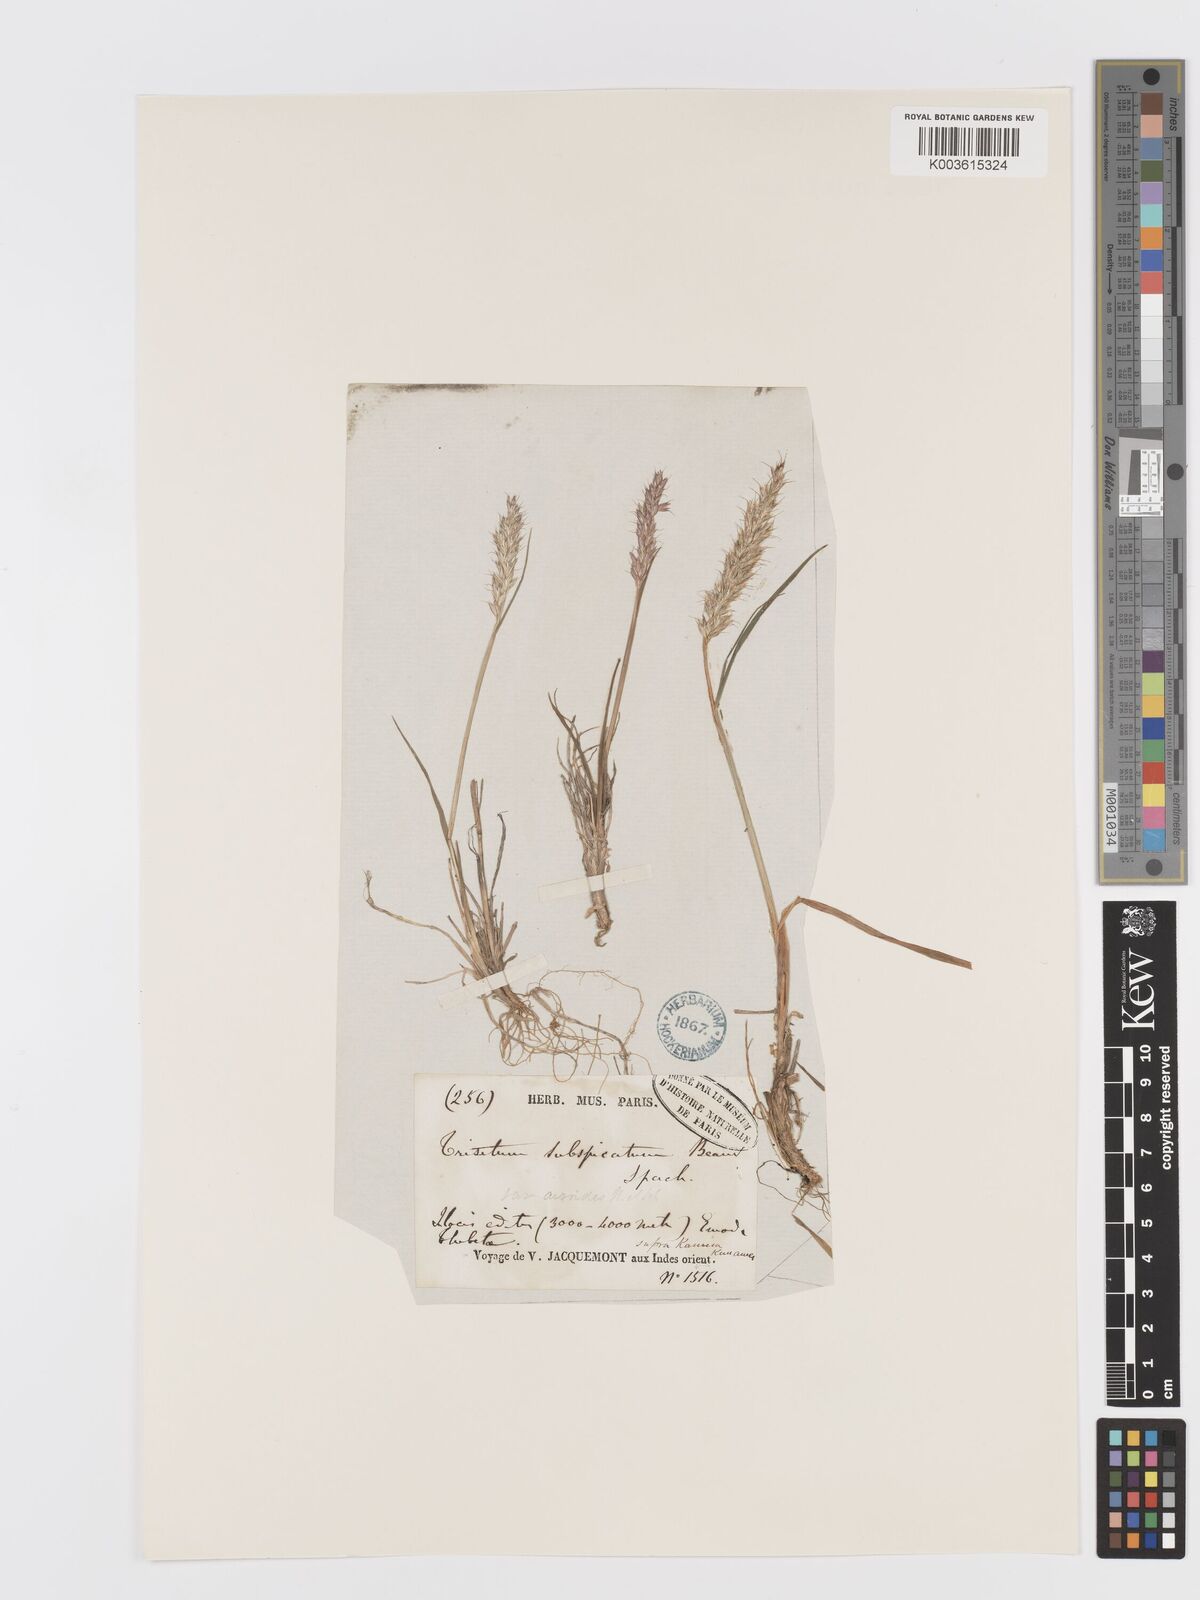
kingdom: Plantae
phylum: Tracheophyta
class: Liliopsida
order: Poales
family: Poaceae
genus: Koeleria
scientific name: Koeleria spicata
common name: Mountain trisetum
